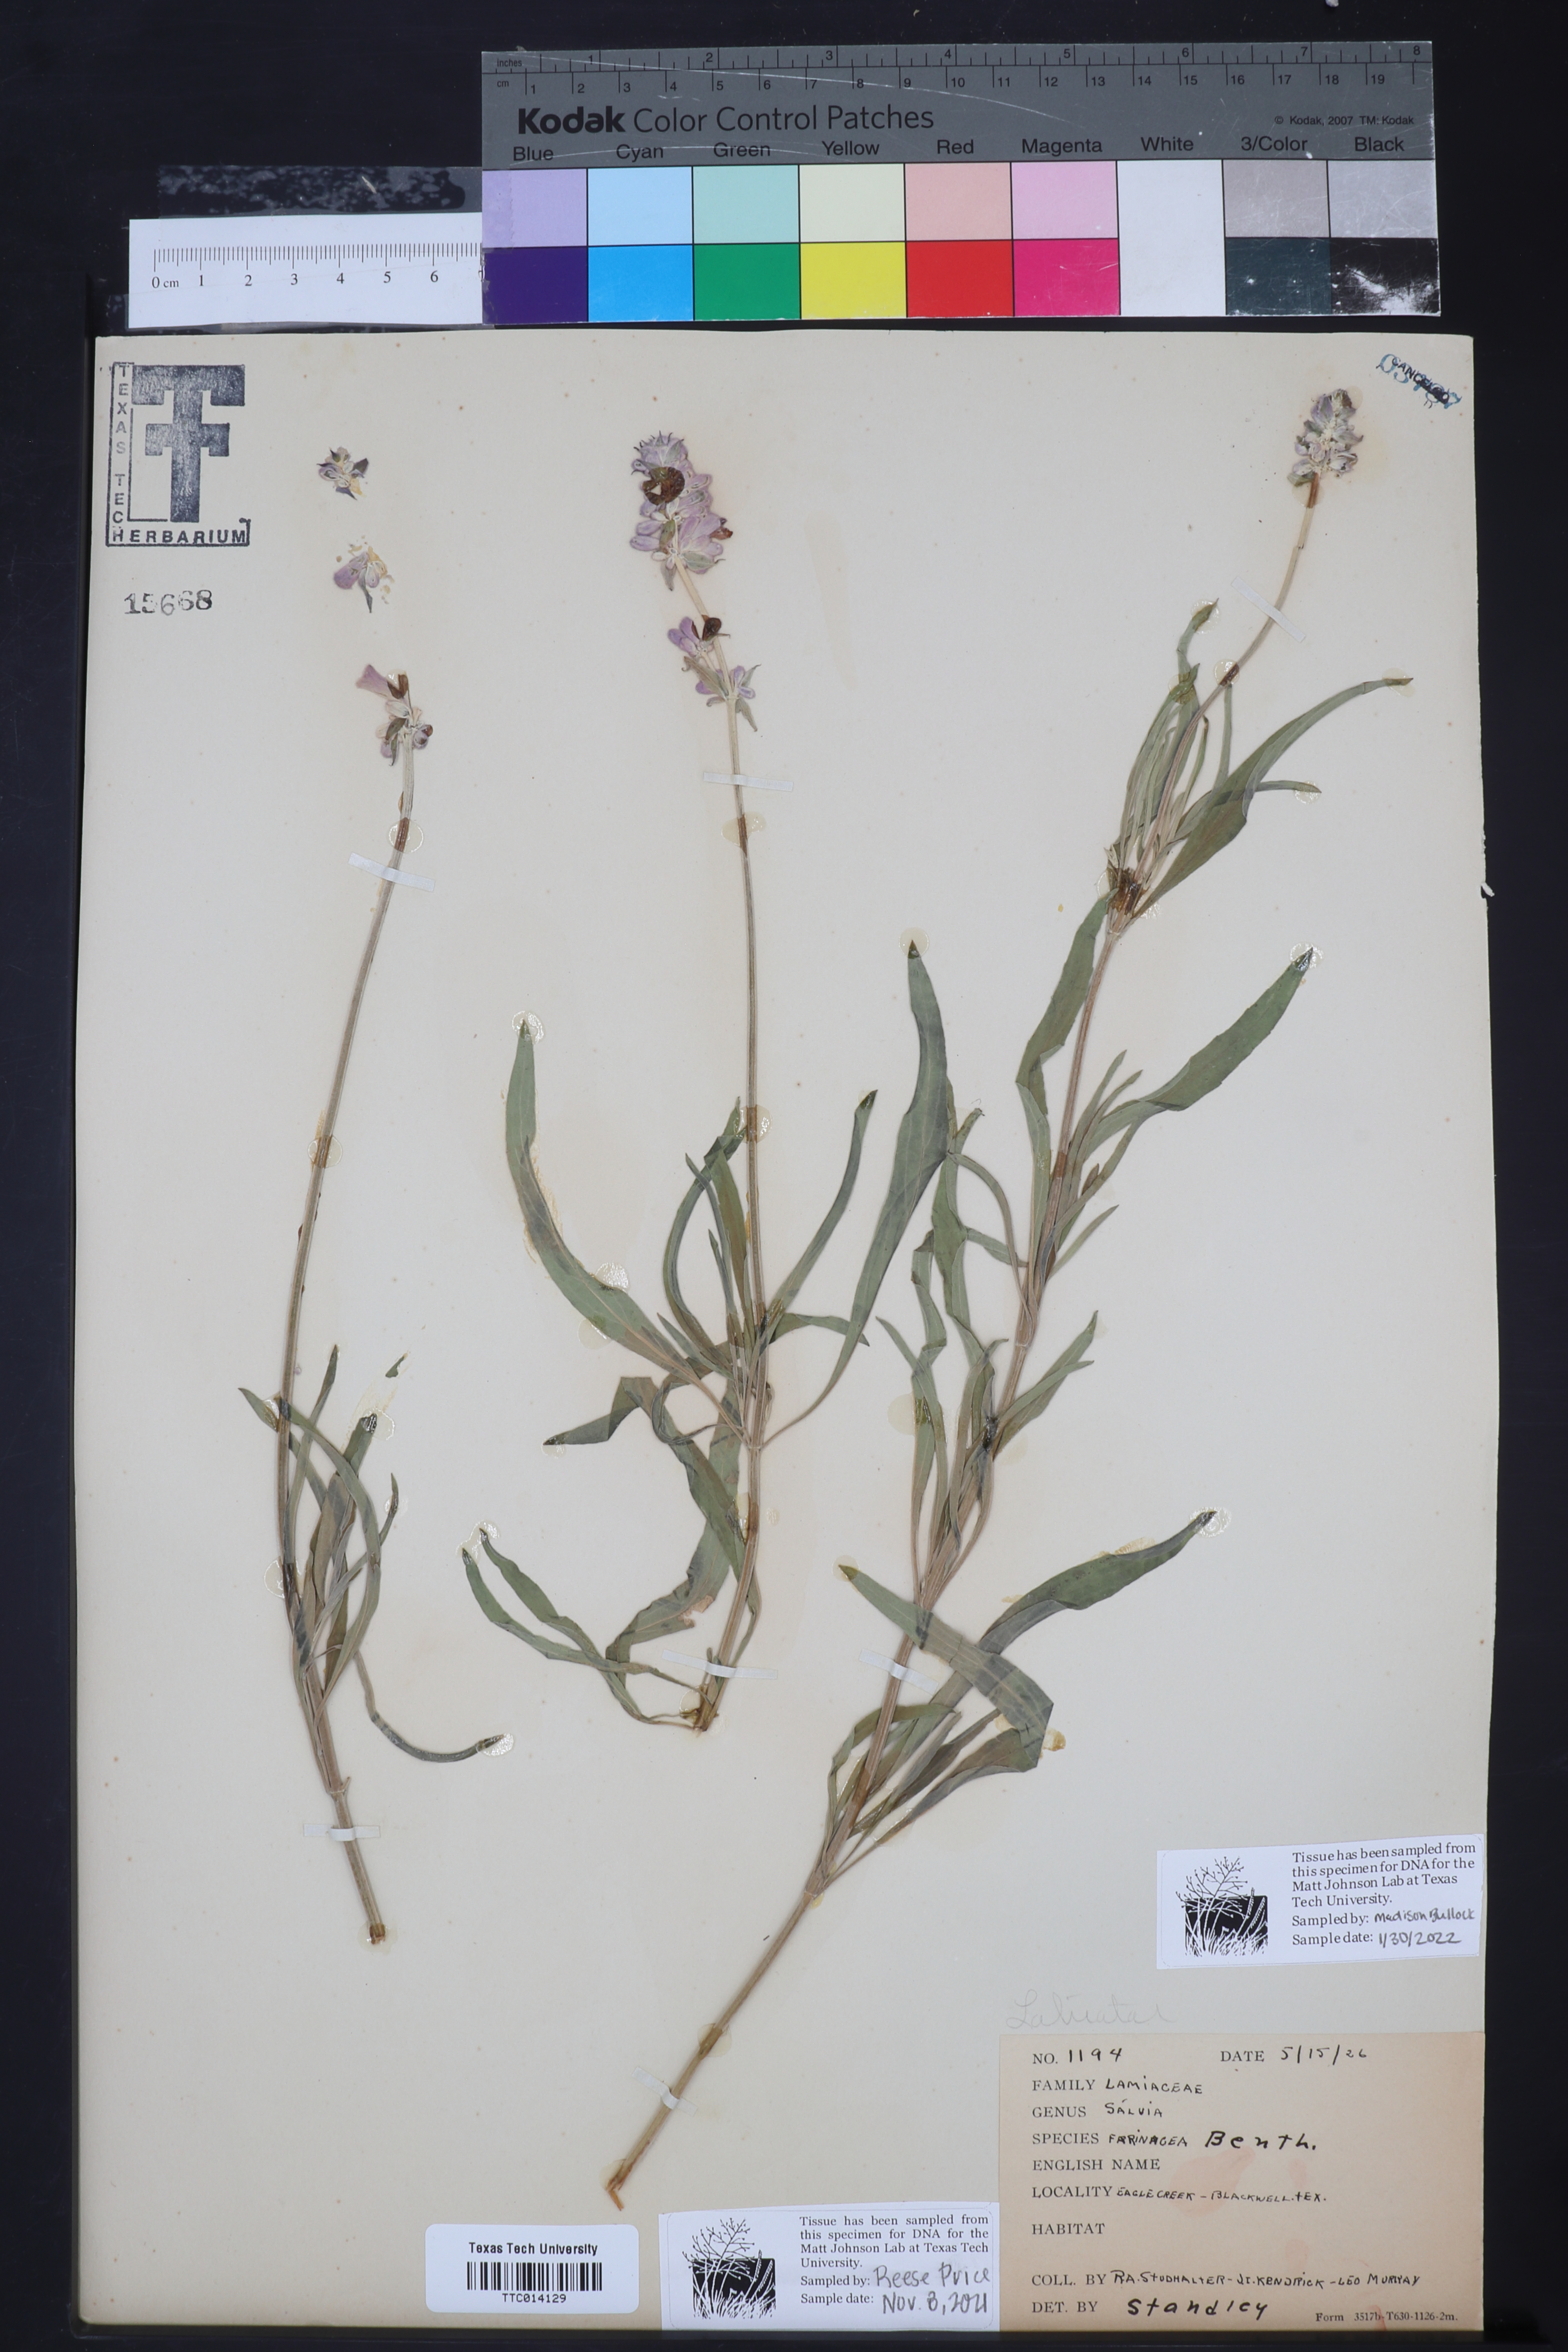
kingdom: Plantae
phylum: Tracheophyta
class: Magnoliopsida
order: Lamiales
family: Lamiaceae
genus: Salvia
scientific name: Salvia farinacea
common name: Mealy sage
